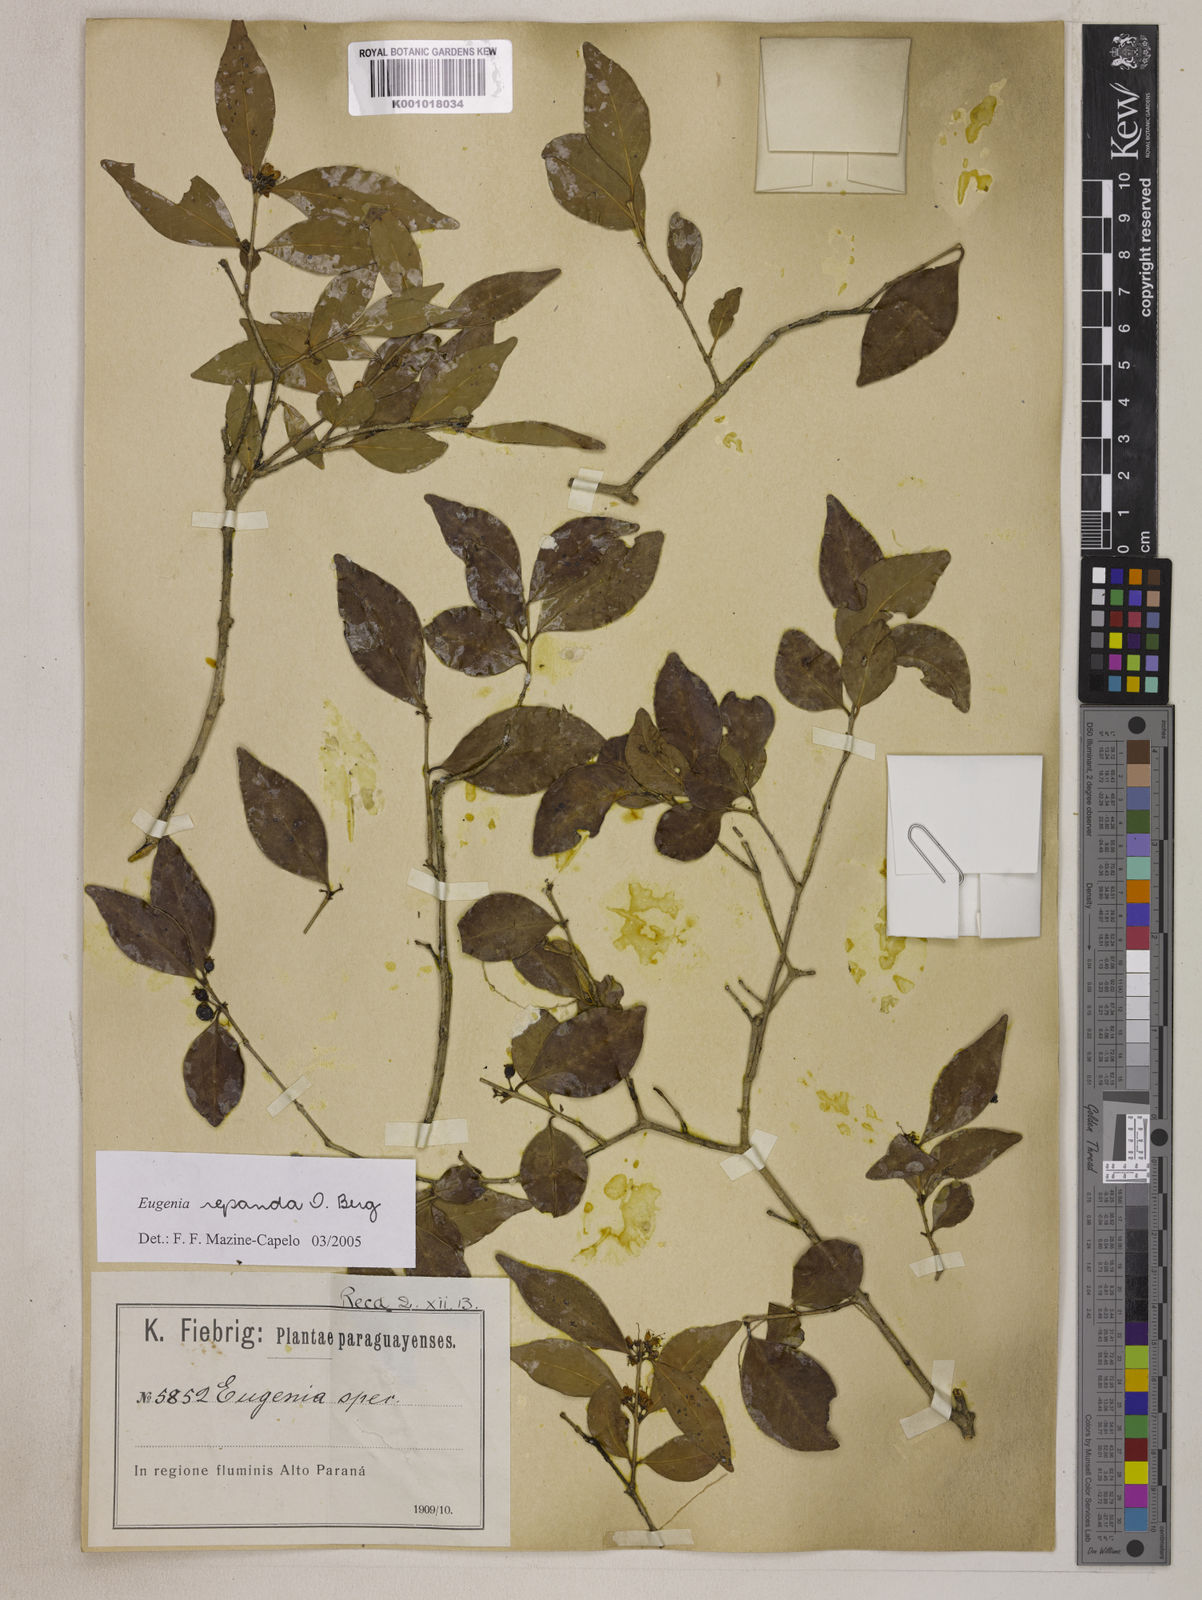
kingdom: Plantae
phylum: Tracheophyta
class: Magnoliopsida
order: Myrtales
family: Myrtaceae
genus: Eugenia
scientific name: Eugenia repanda
